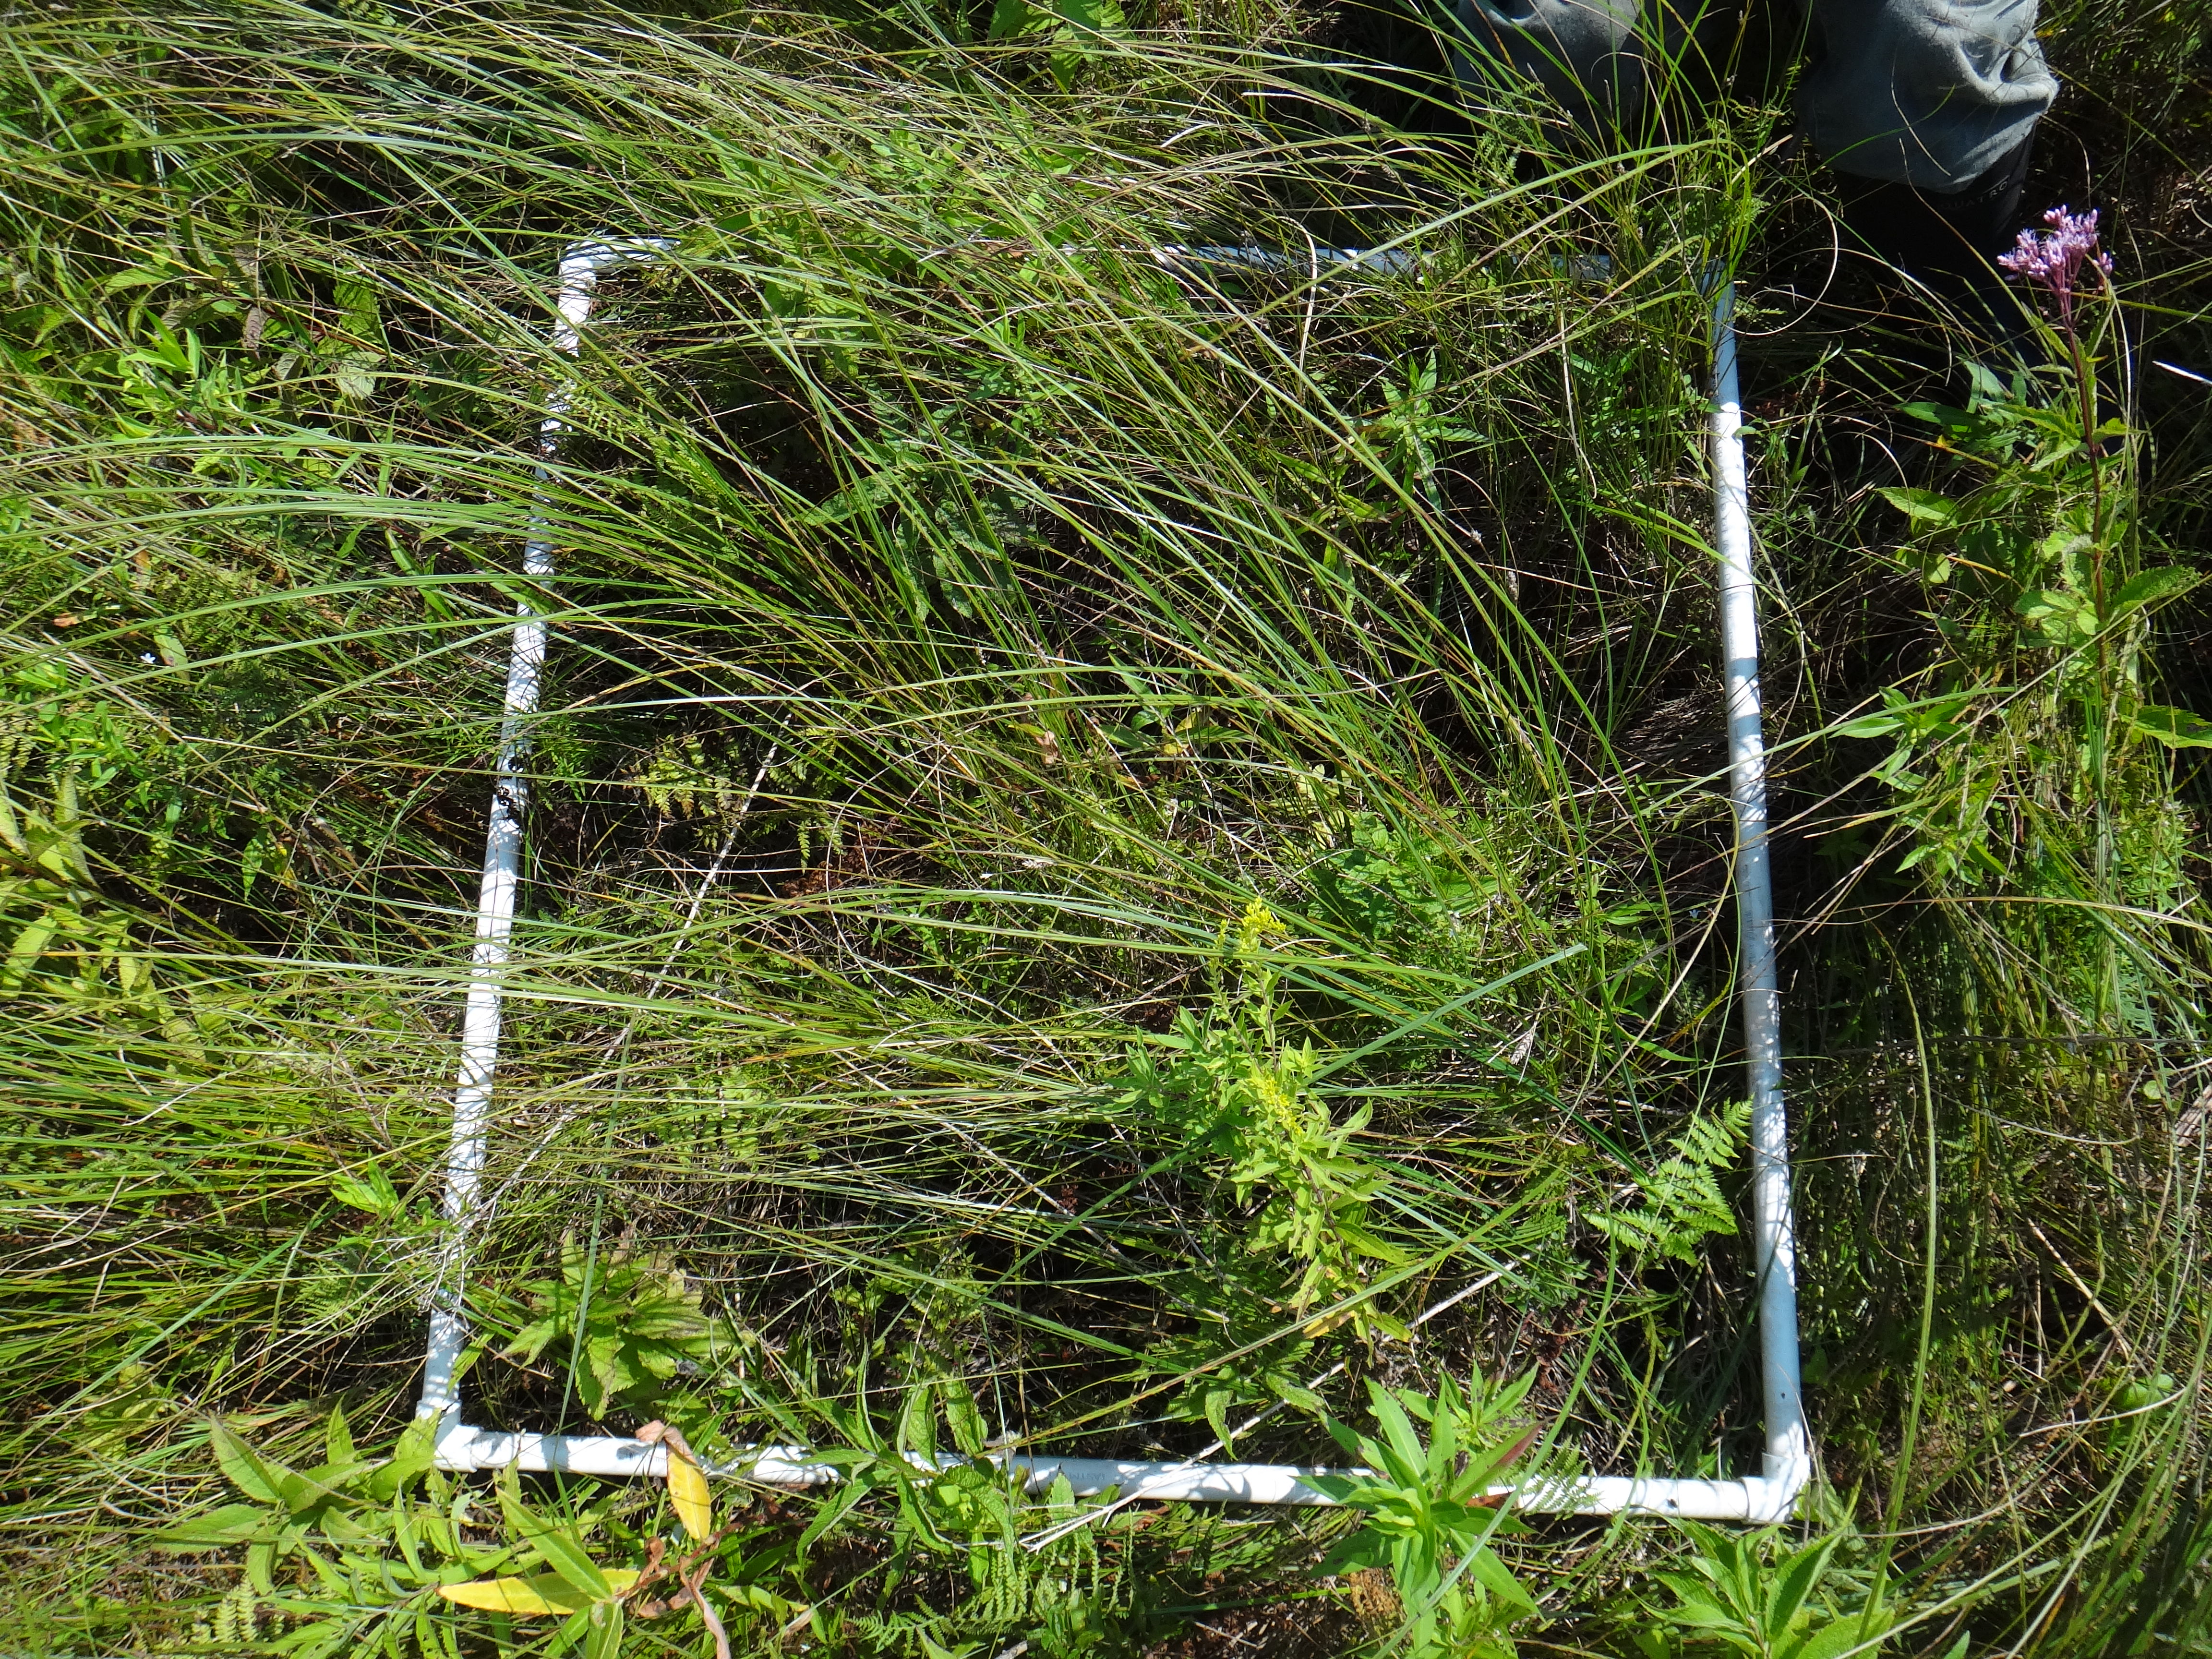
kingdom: Plantae
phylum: Tracheophyta
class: Magnoliopsida
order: Rosales
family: Rosaceae
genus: Spiraea
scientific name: Spiraea alba
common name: Pale bridewort
